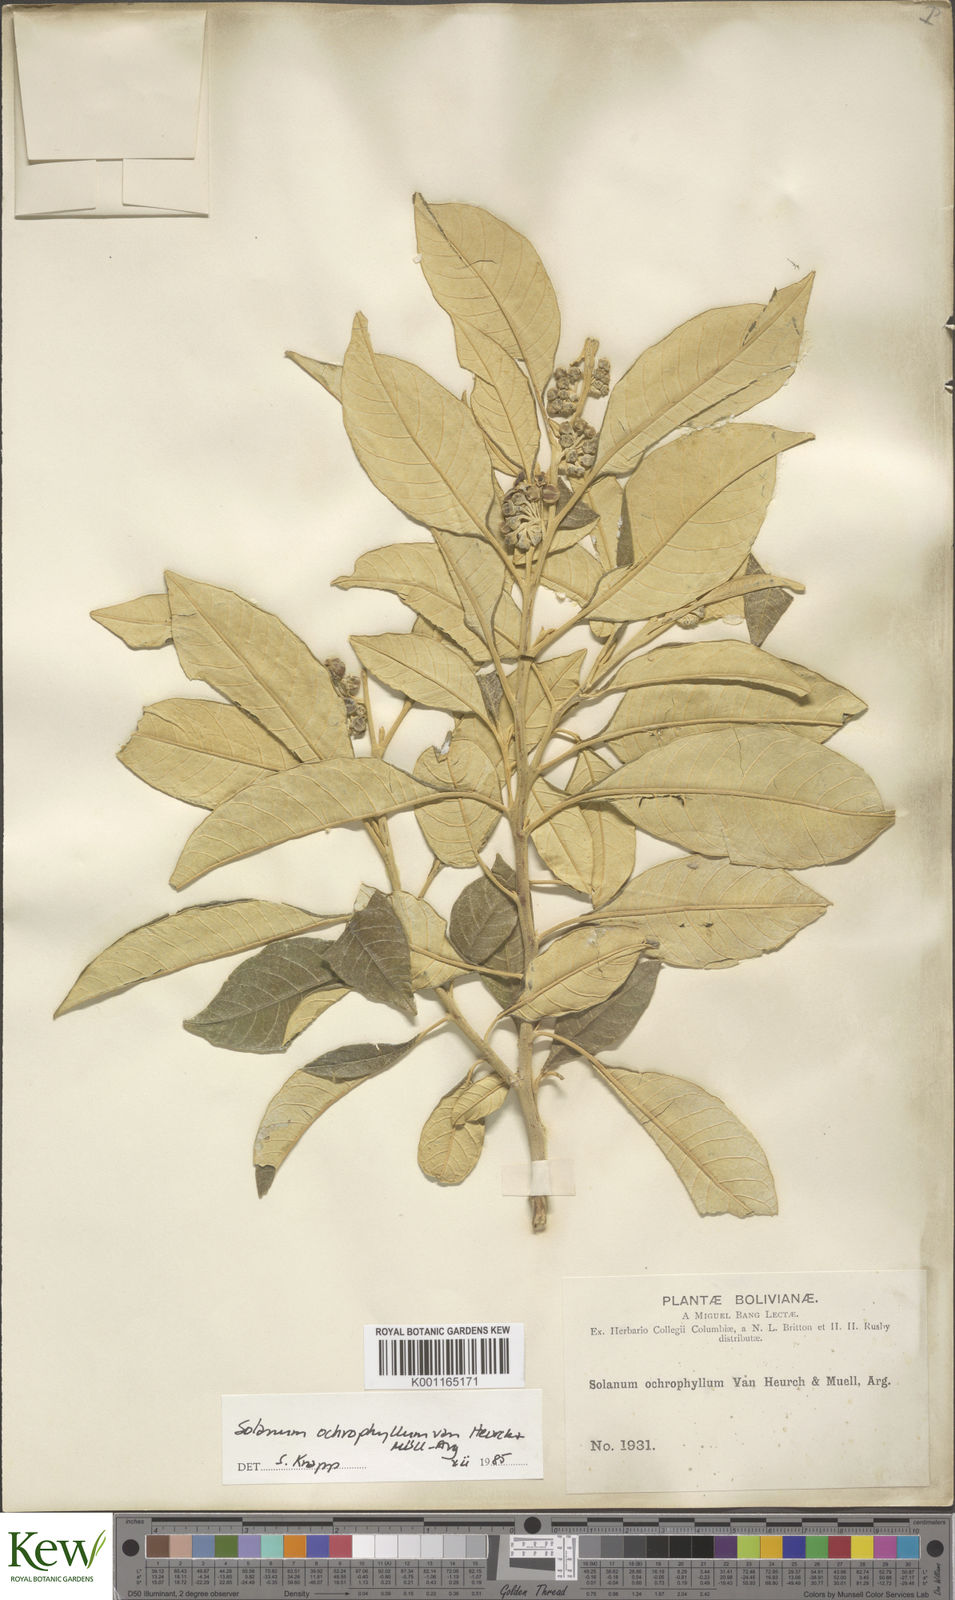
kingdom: Plantae
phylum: Tracheophyta
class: Magnoliopsida
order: Solanales
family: Solanaceae
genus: Solanum
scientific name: Solanum ochrophyllum
